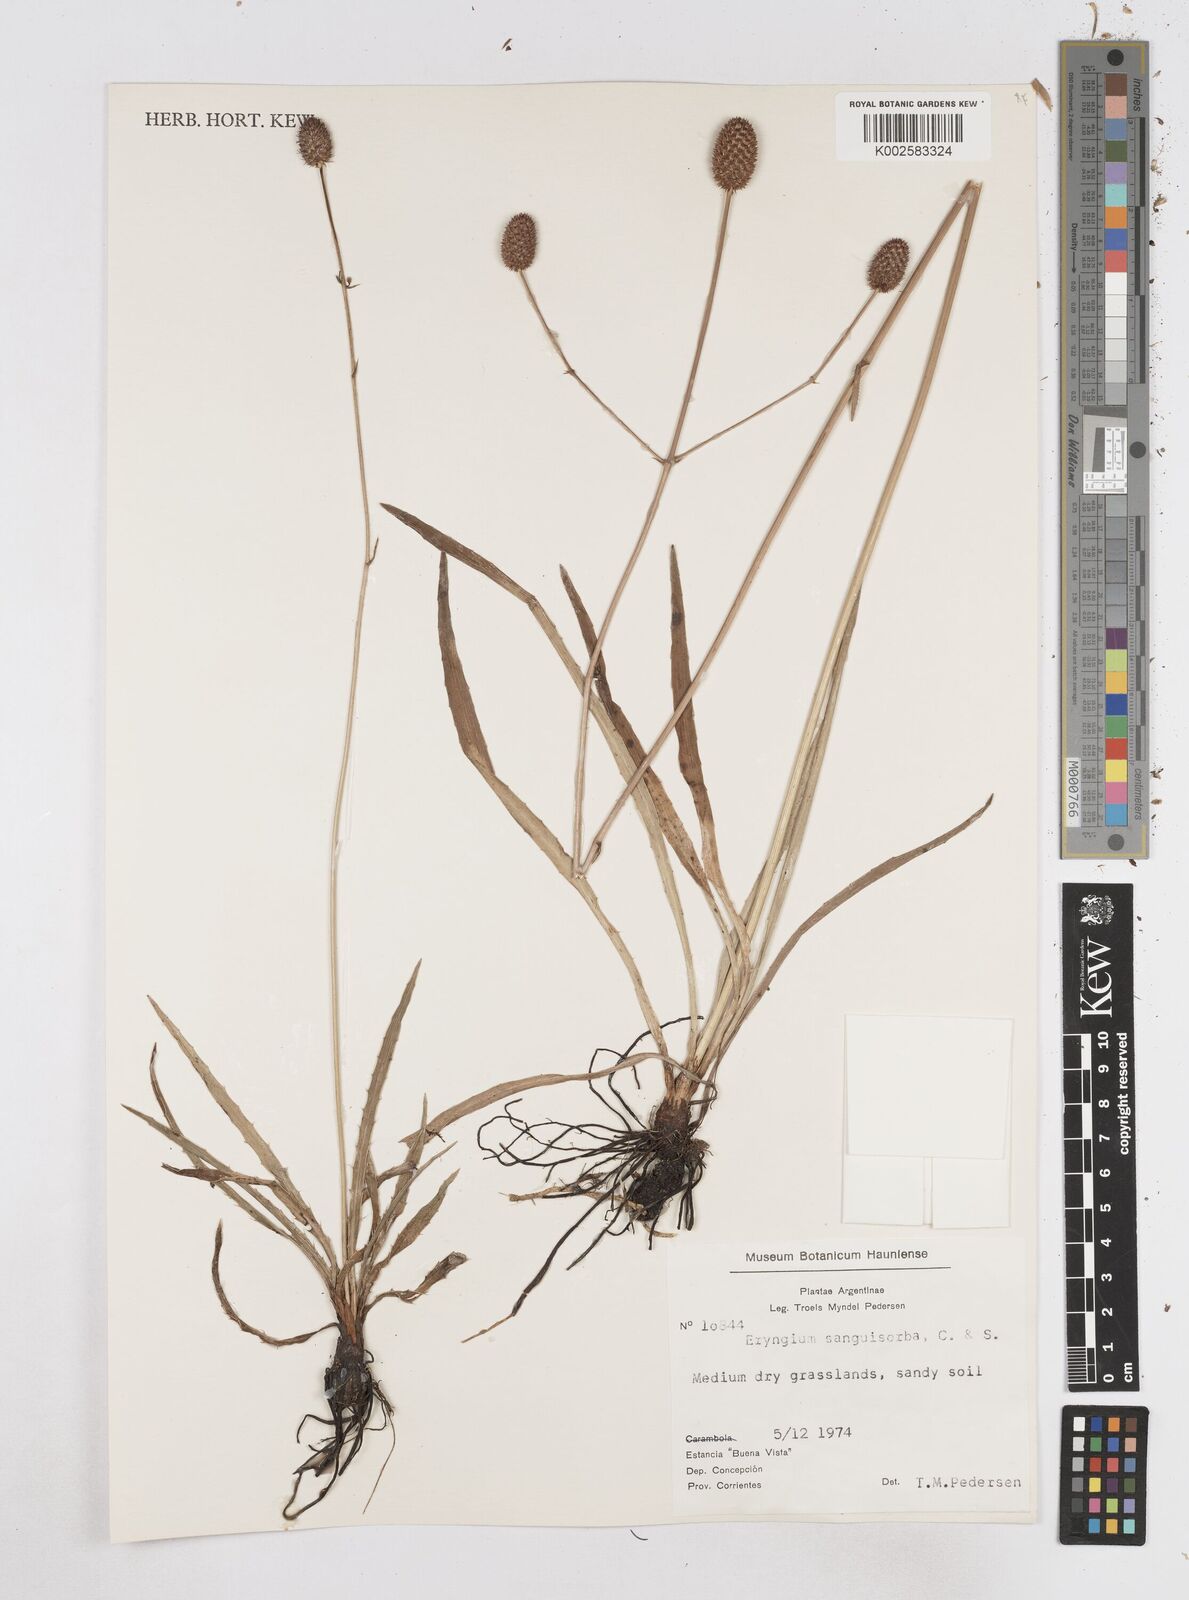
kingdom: Plantae
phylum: Tracheophyta
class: Magnoliopsida
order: Apiales
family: Apiaceae
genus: Eryngium
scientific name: Eryngium sanguisorba
